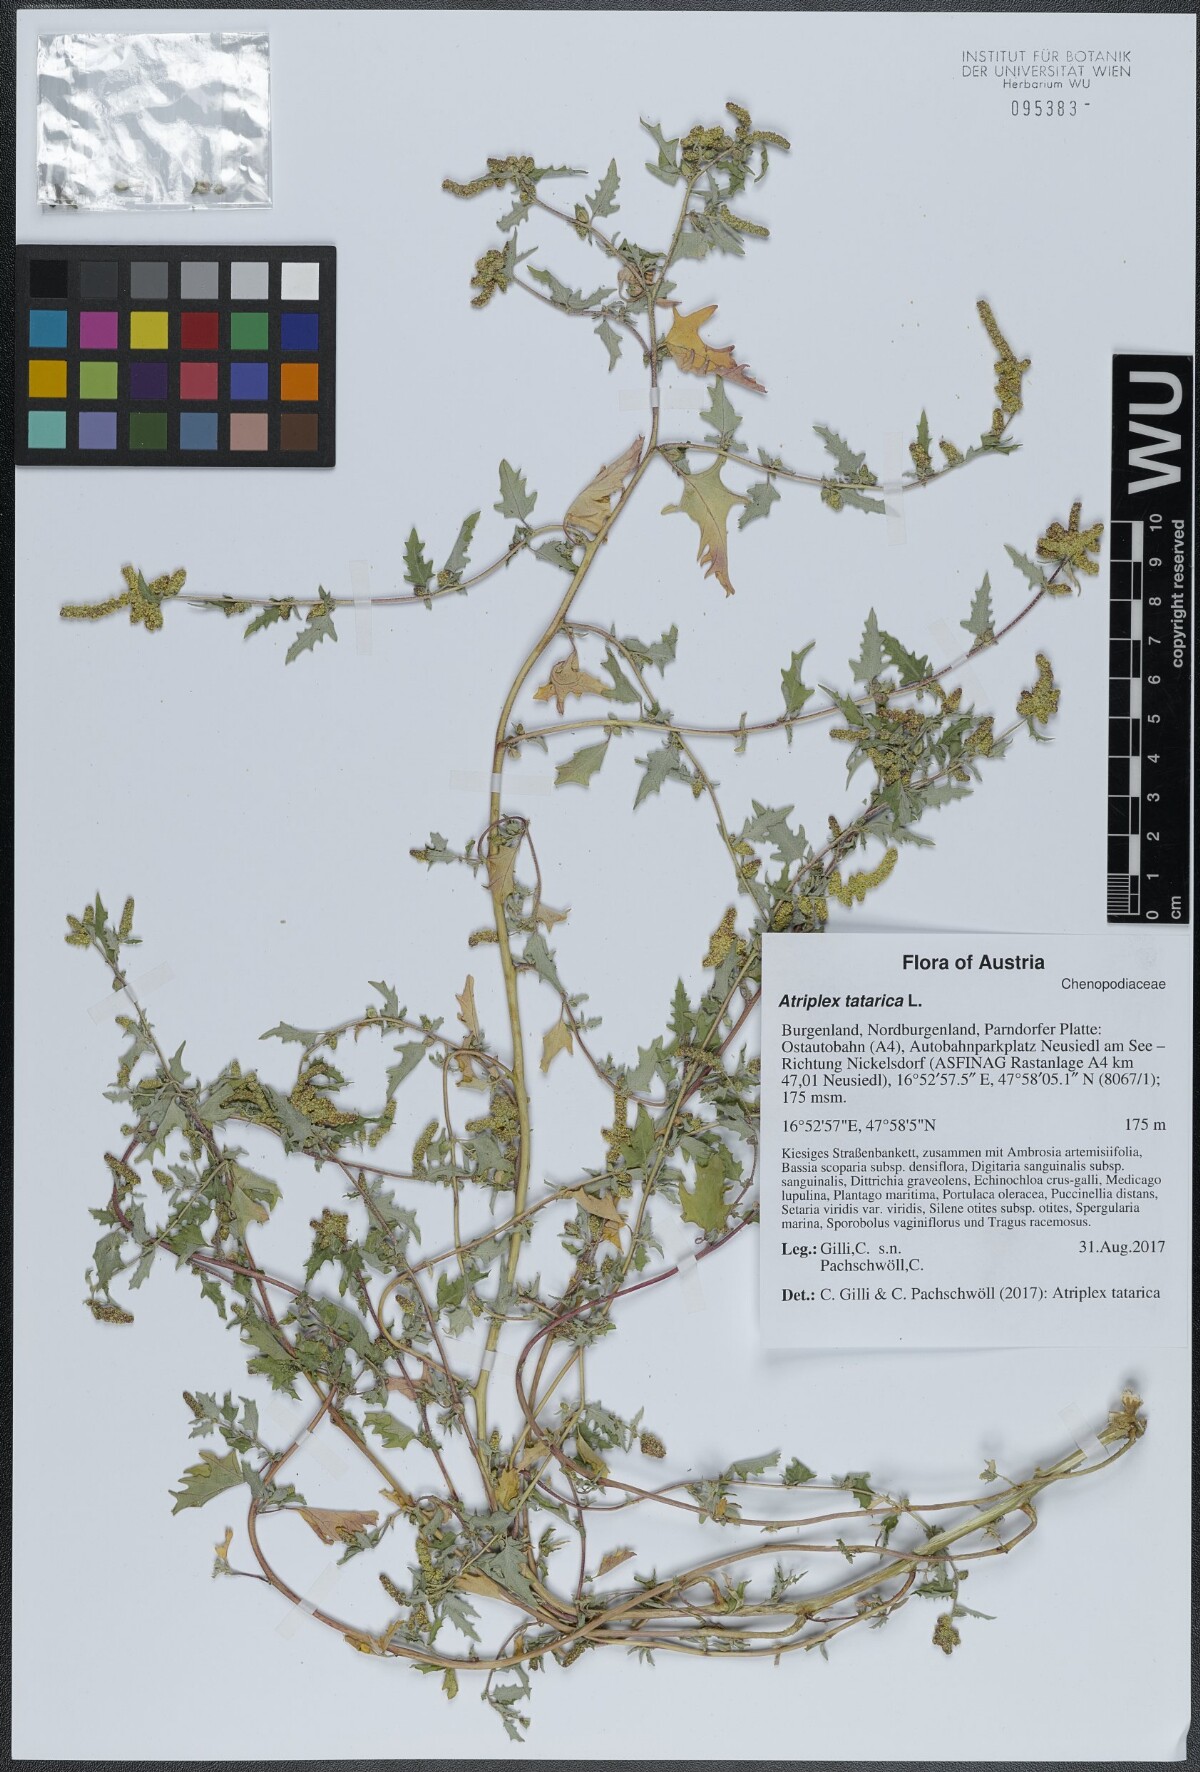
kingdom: Plantae
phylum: Tracheophyta
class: Magnoliopsida
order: Caryophyllales
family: Amaranthaceae
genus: Atriplex
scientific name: Atriplex tatarica
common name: Tatarian orache
